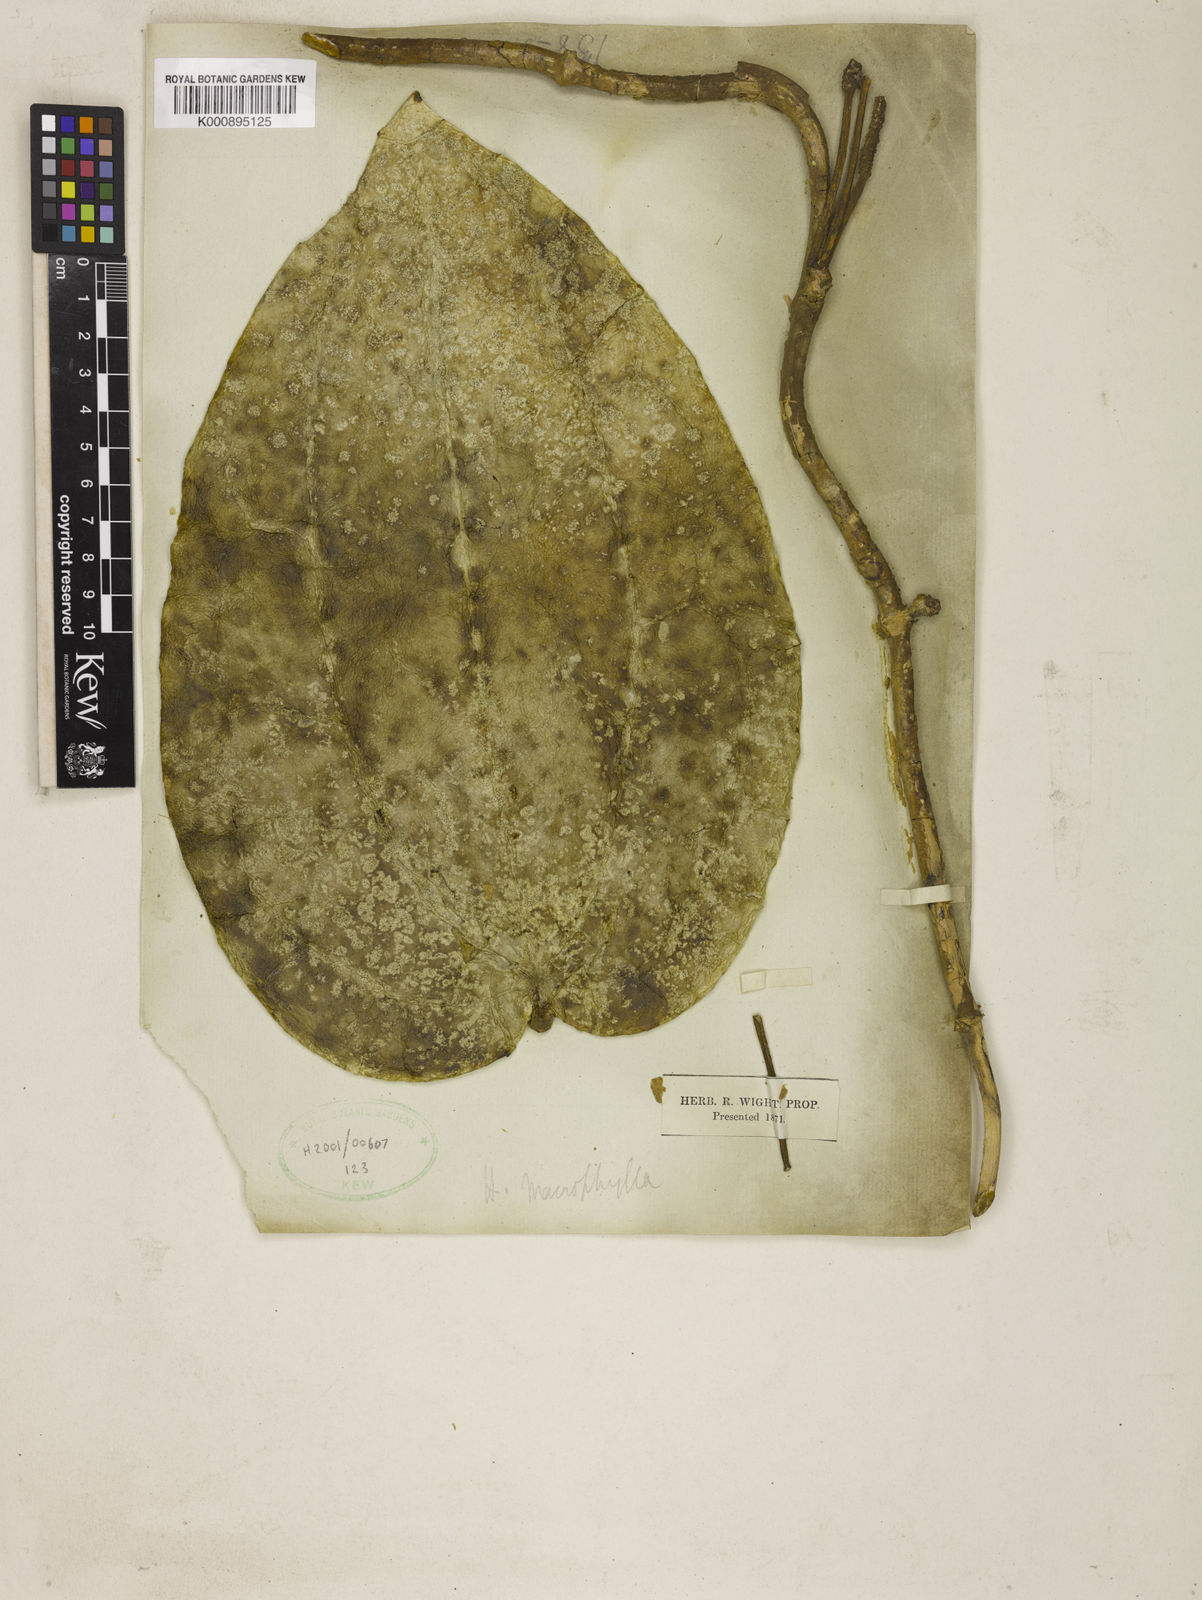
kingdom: Plantae
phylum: Tracheophyta
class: Magnoliopsida
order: Gentianales
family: Apocynaceae
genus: Hoya
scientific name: Hoya
